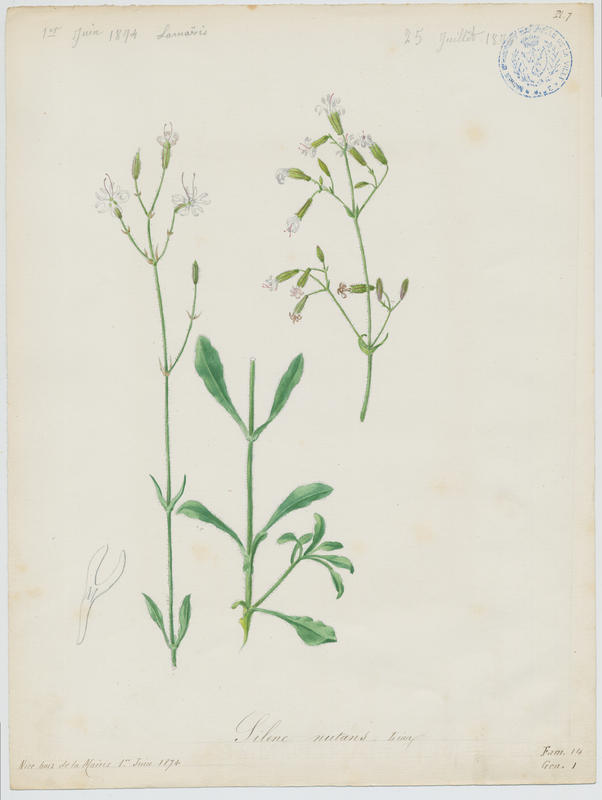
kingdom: Plantae
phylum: Tracheophyta
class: Magnoliopsida
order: Caryophyllales
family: Caryophyllaceae
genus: Silene
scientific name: Silene nutans
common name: Nottingham catchfly
